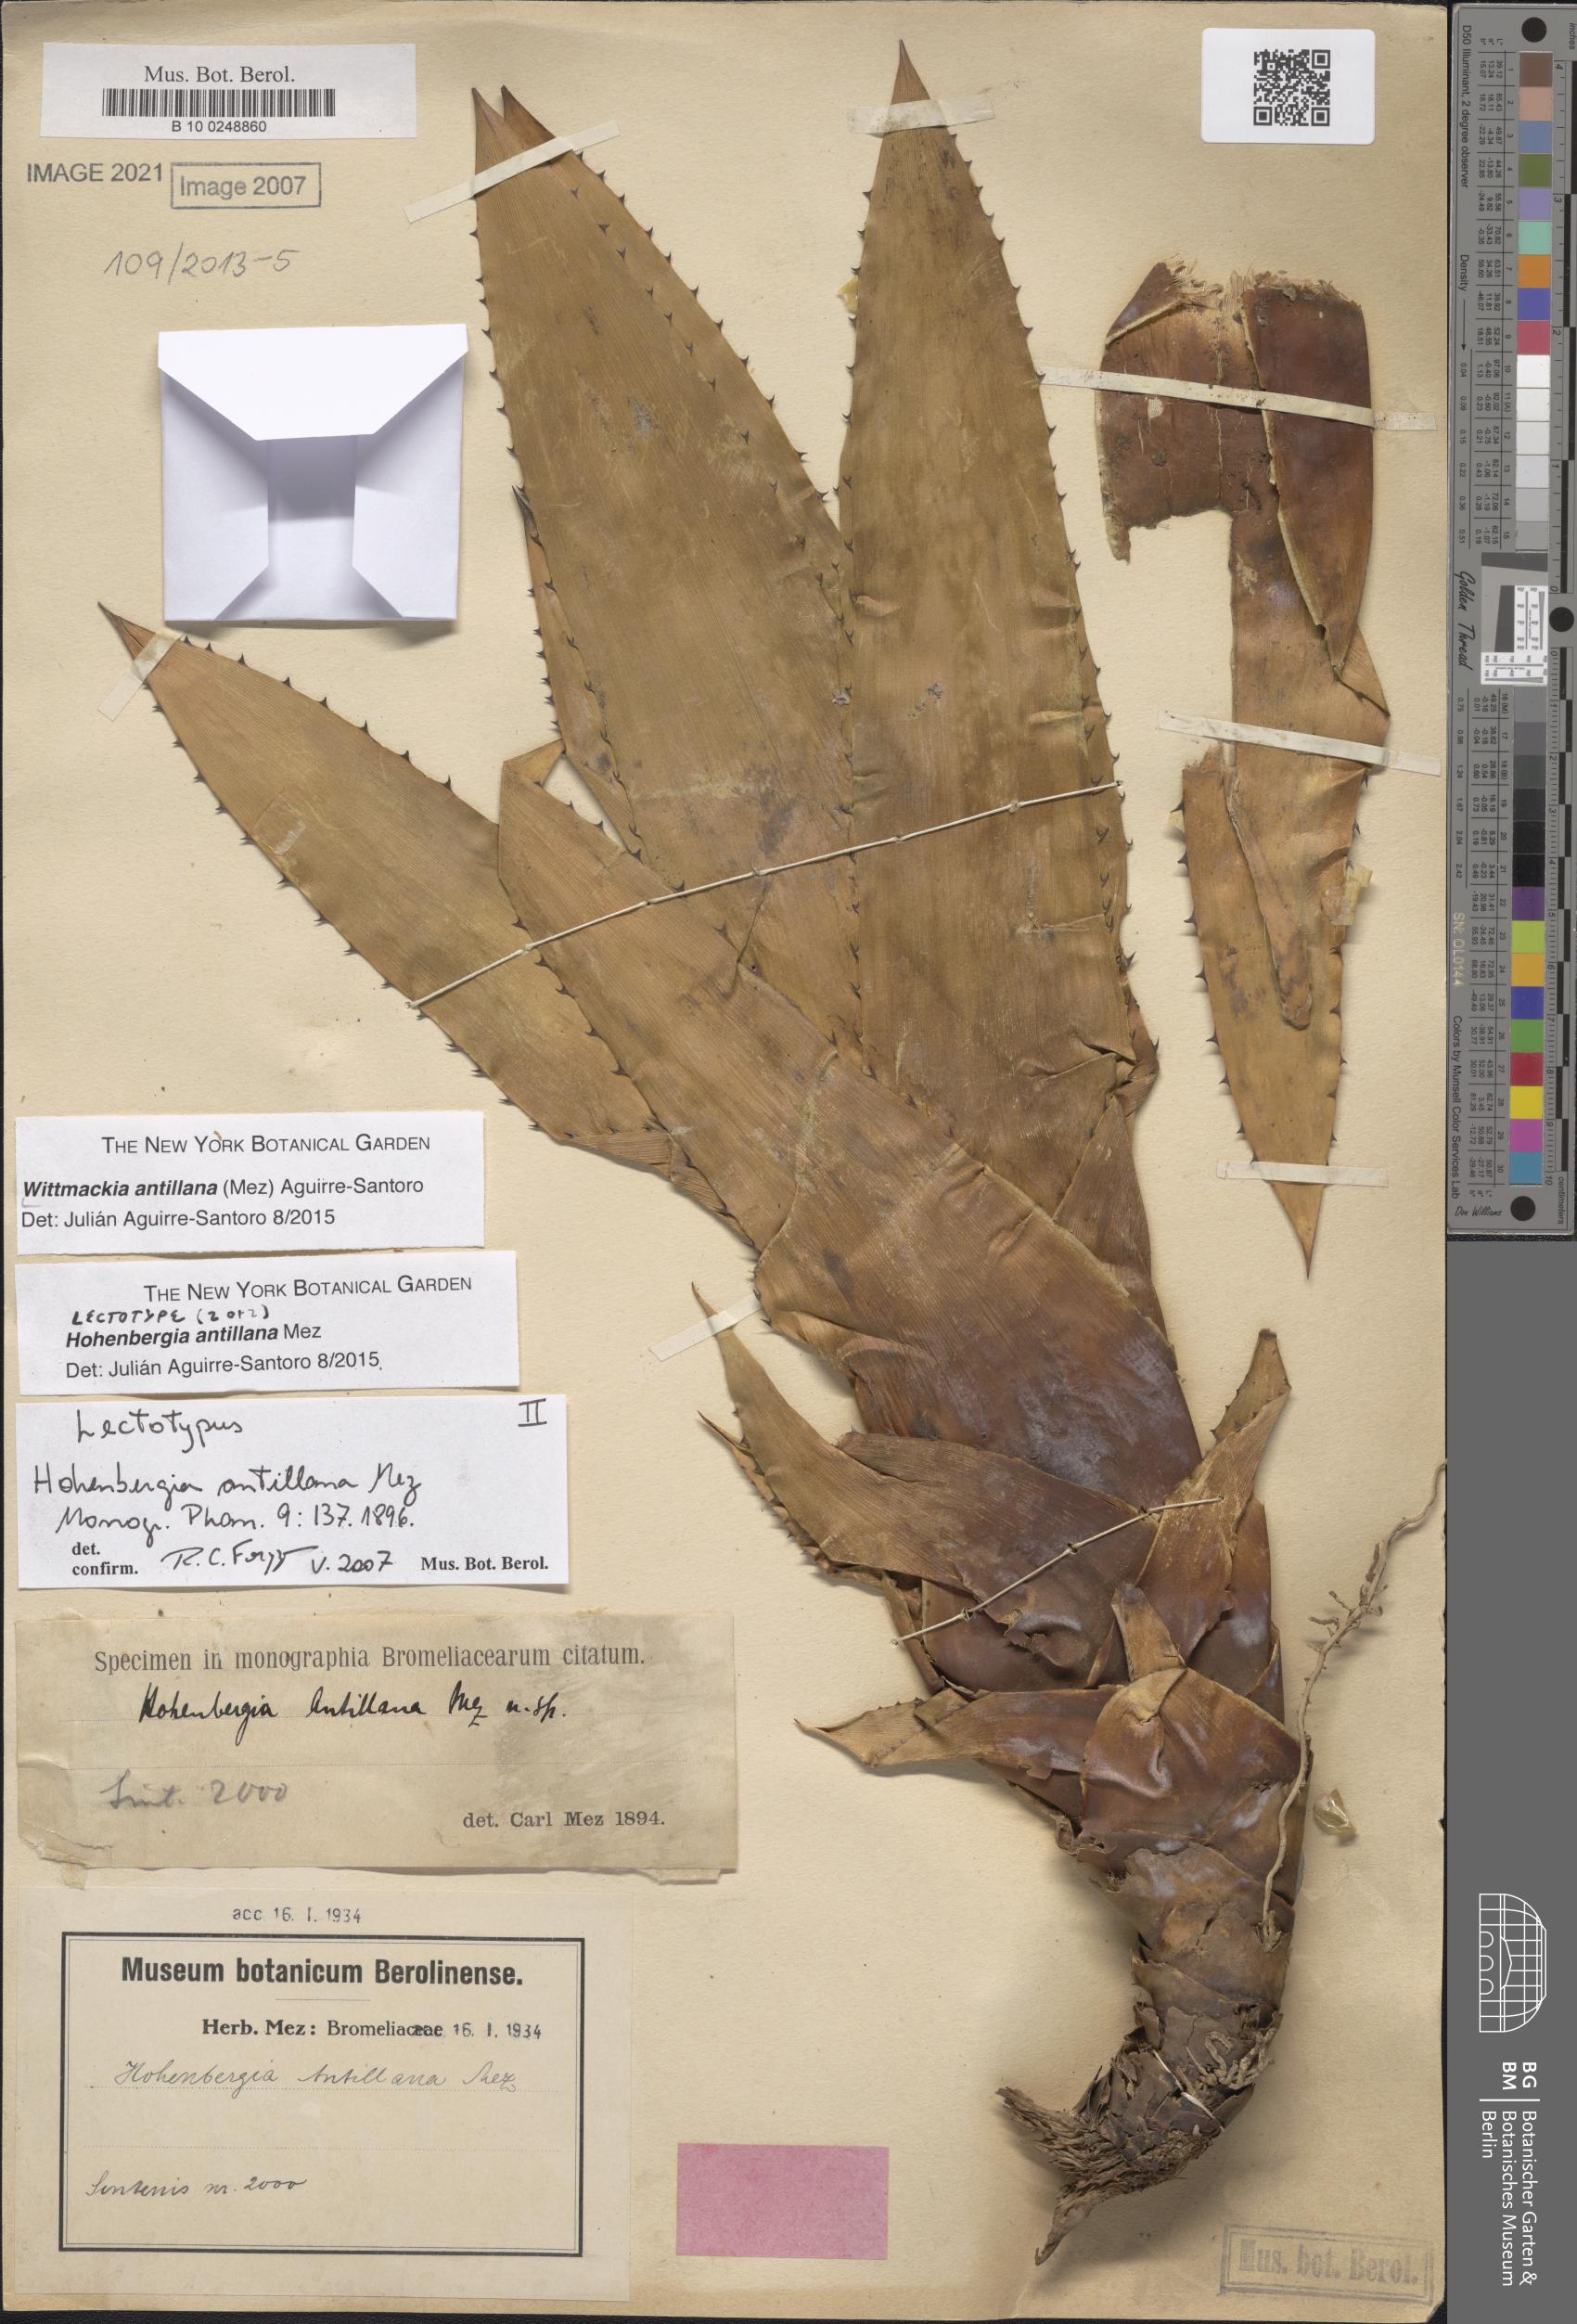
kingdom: Plantae
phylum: Tracheophyta
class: Liliopsida
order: Poales
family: Bromeliaceae
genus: Wittmackia
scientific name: Wittmackia antillana
